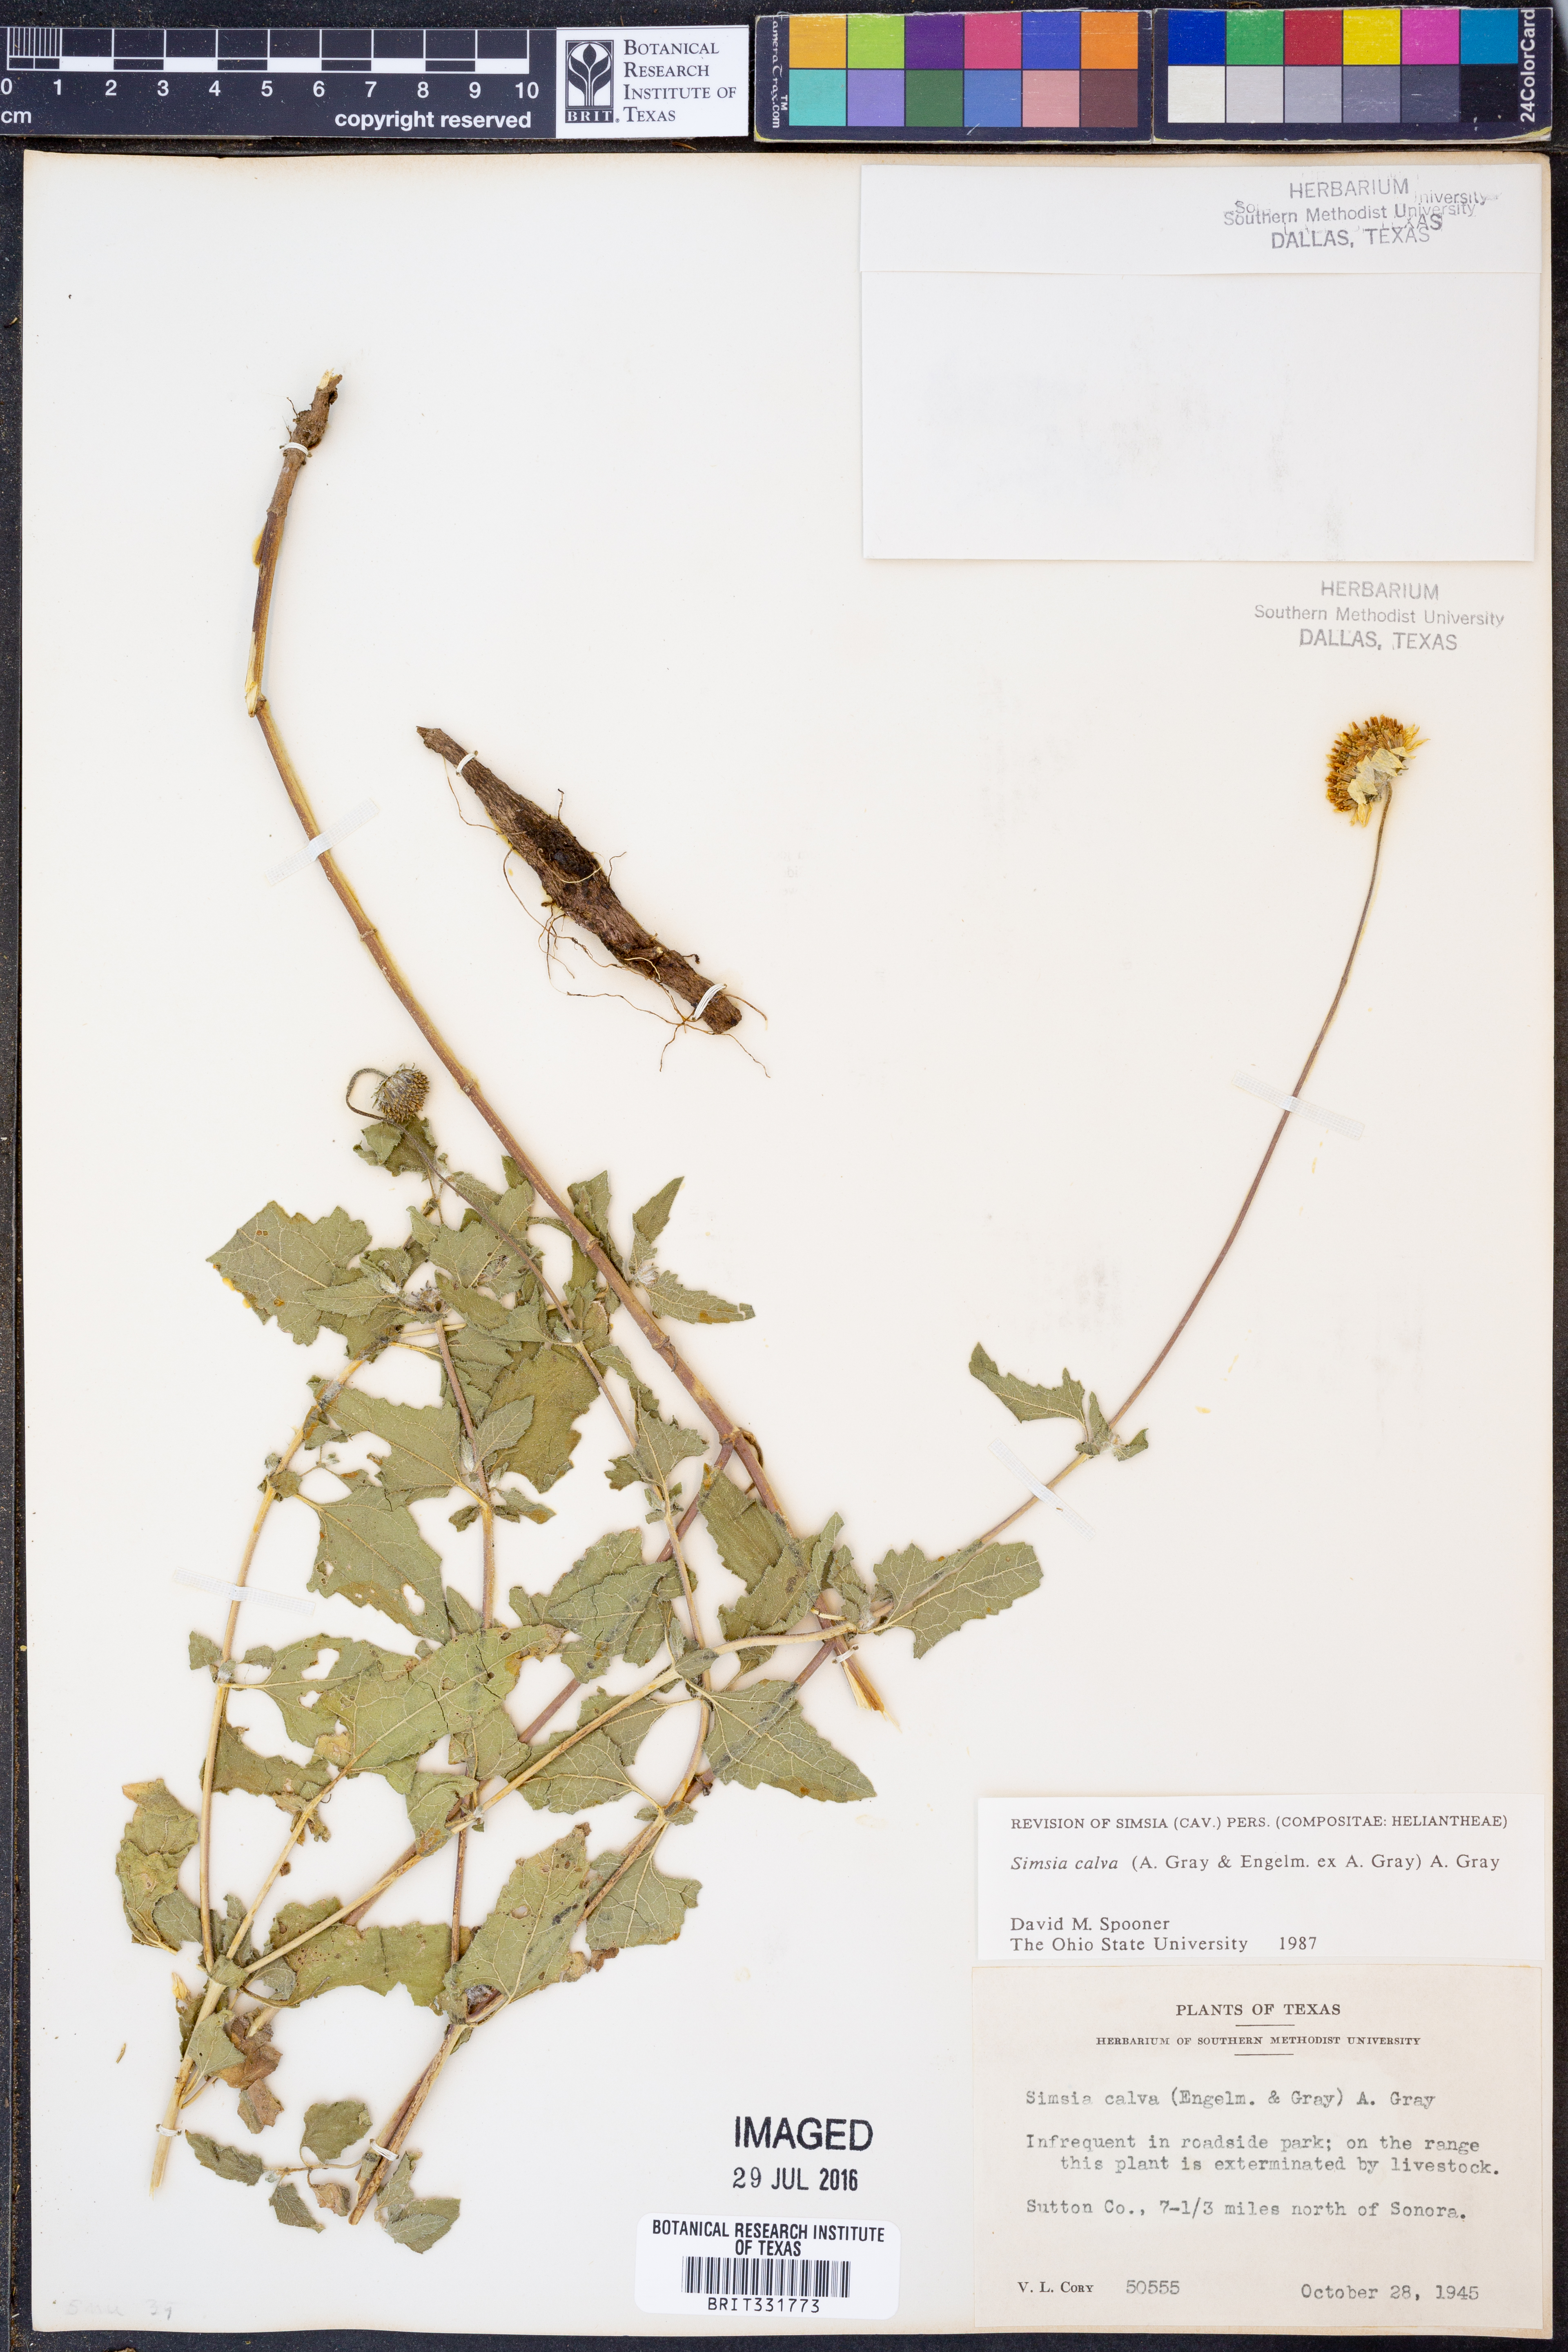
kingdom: Plantae
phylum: Tracheophyta
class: Magnoliopsida
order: Asterales
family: Asteraceae
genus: Simsia
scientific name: Simsia calva
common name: Awnless bush-sunflower
